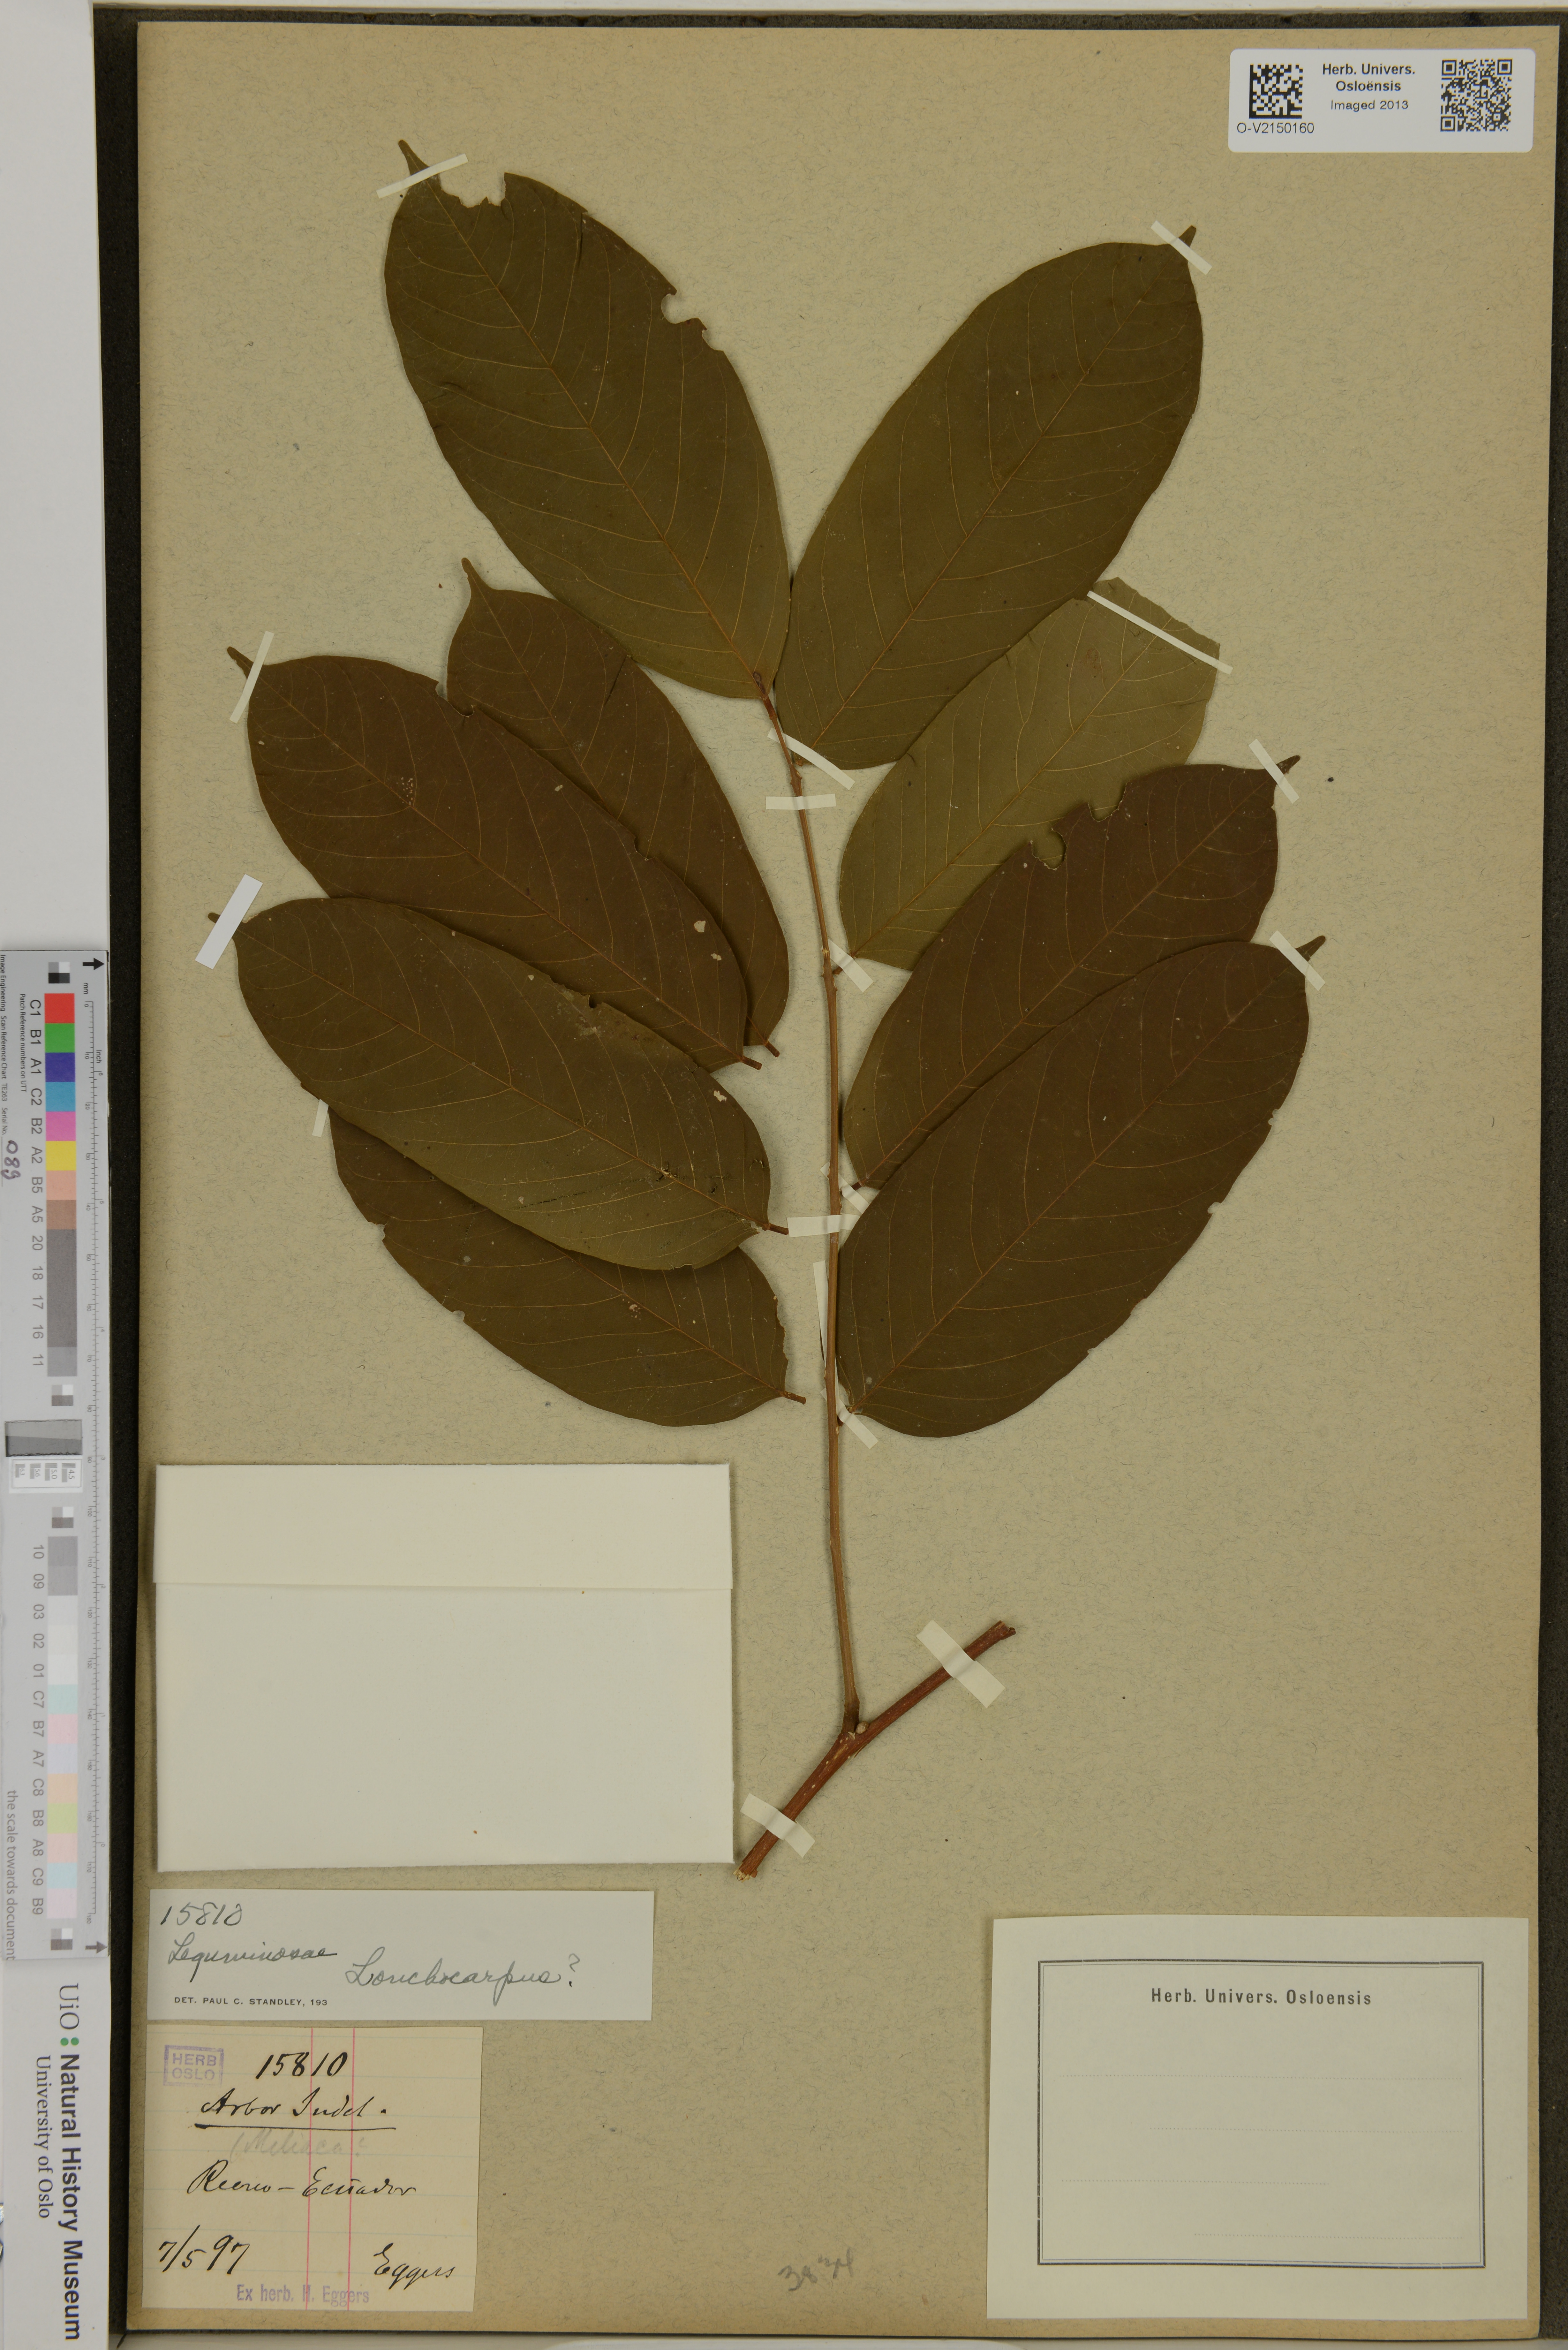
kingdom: Plantae
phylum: Tracheophyta
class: Magnoliopsida
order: Fabales
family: Fabaceae
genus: Lonchocarpus
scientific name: Lonchocarpus
